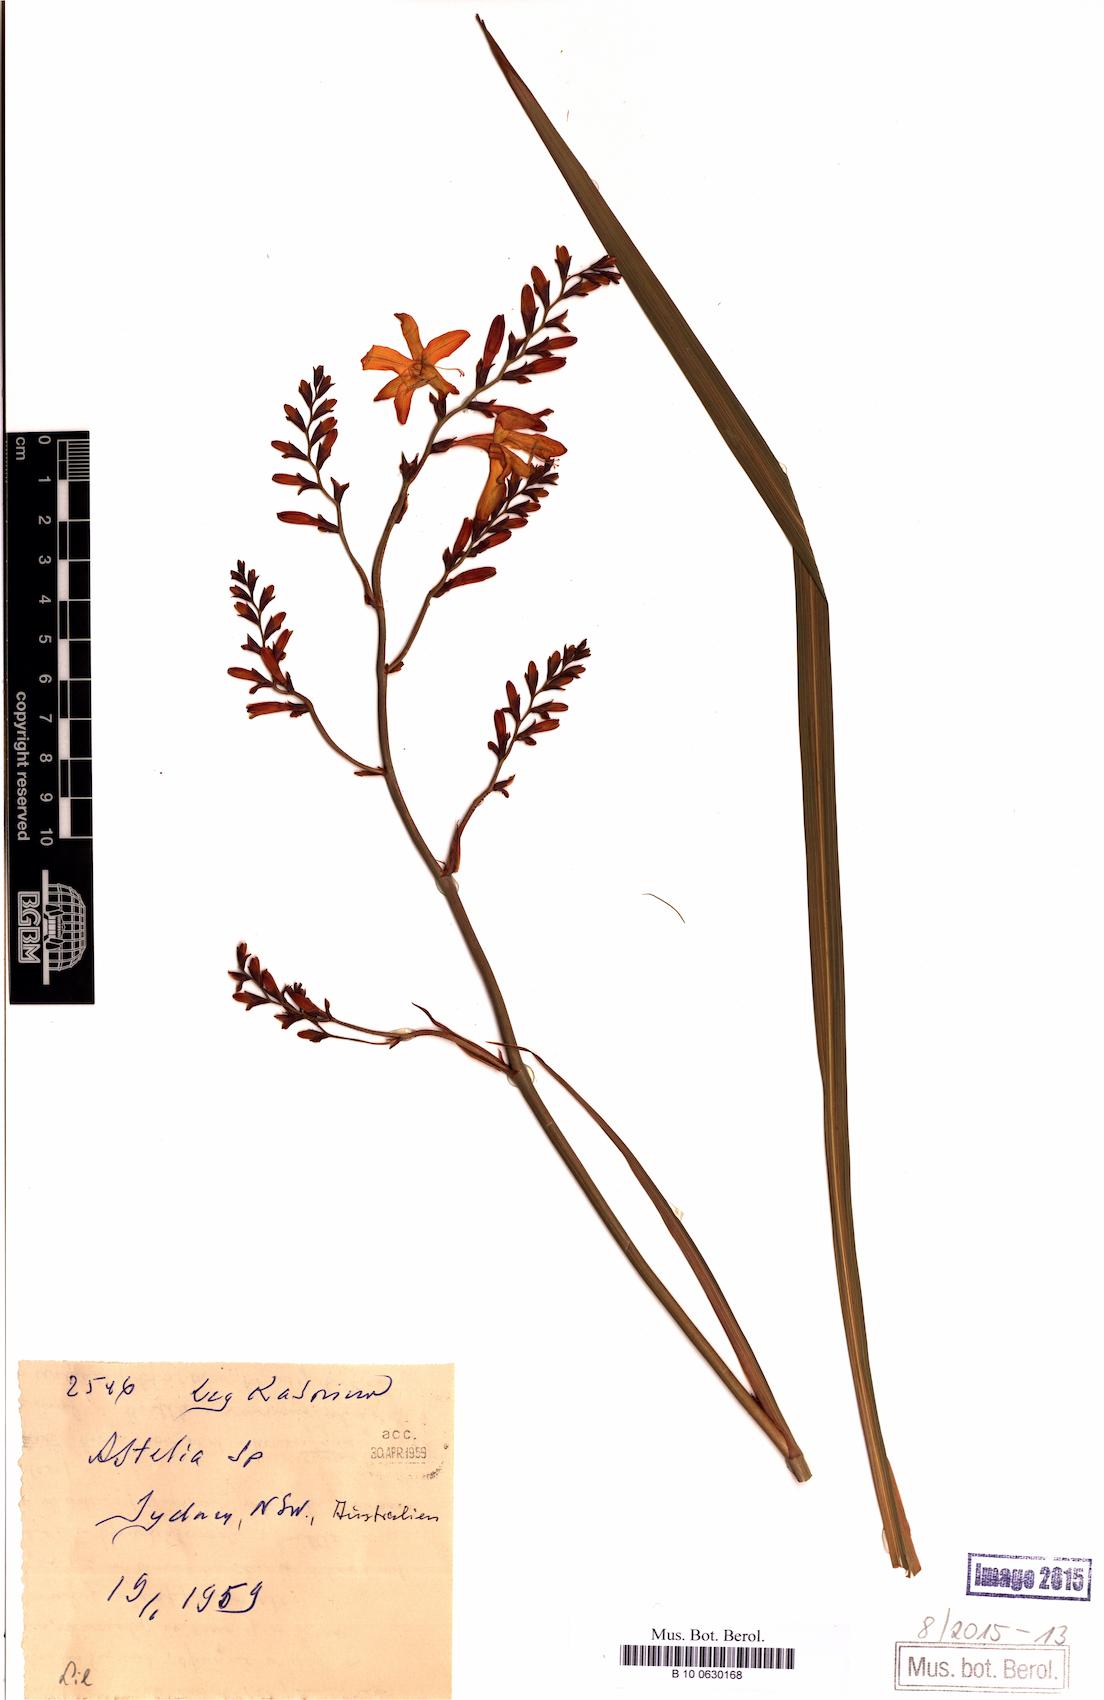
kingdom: Plantae
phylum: Tracheophyta
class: Magnoliopsida
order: Ericales
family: Primulaceae
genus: Ardisia
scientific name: Ardisia paschalis
